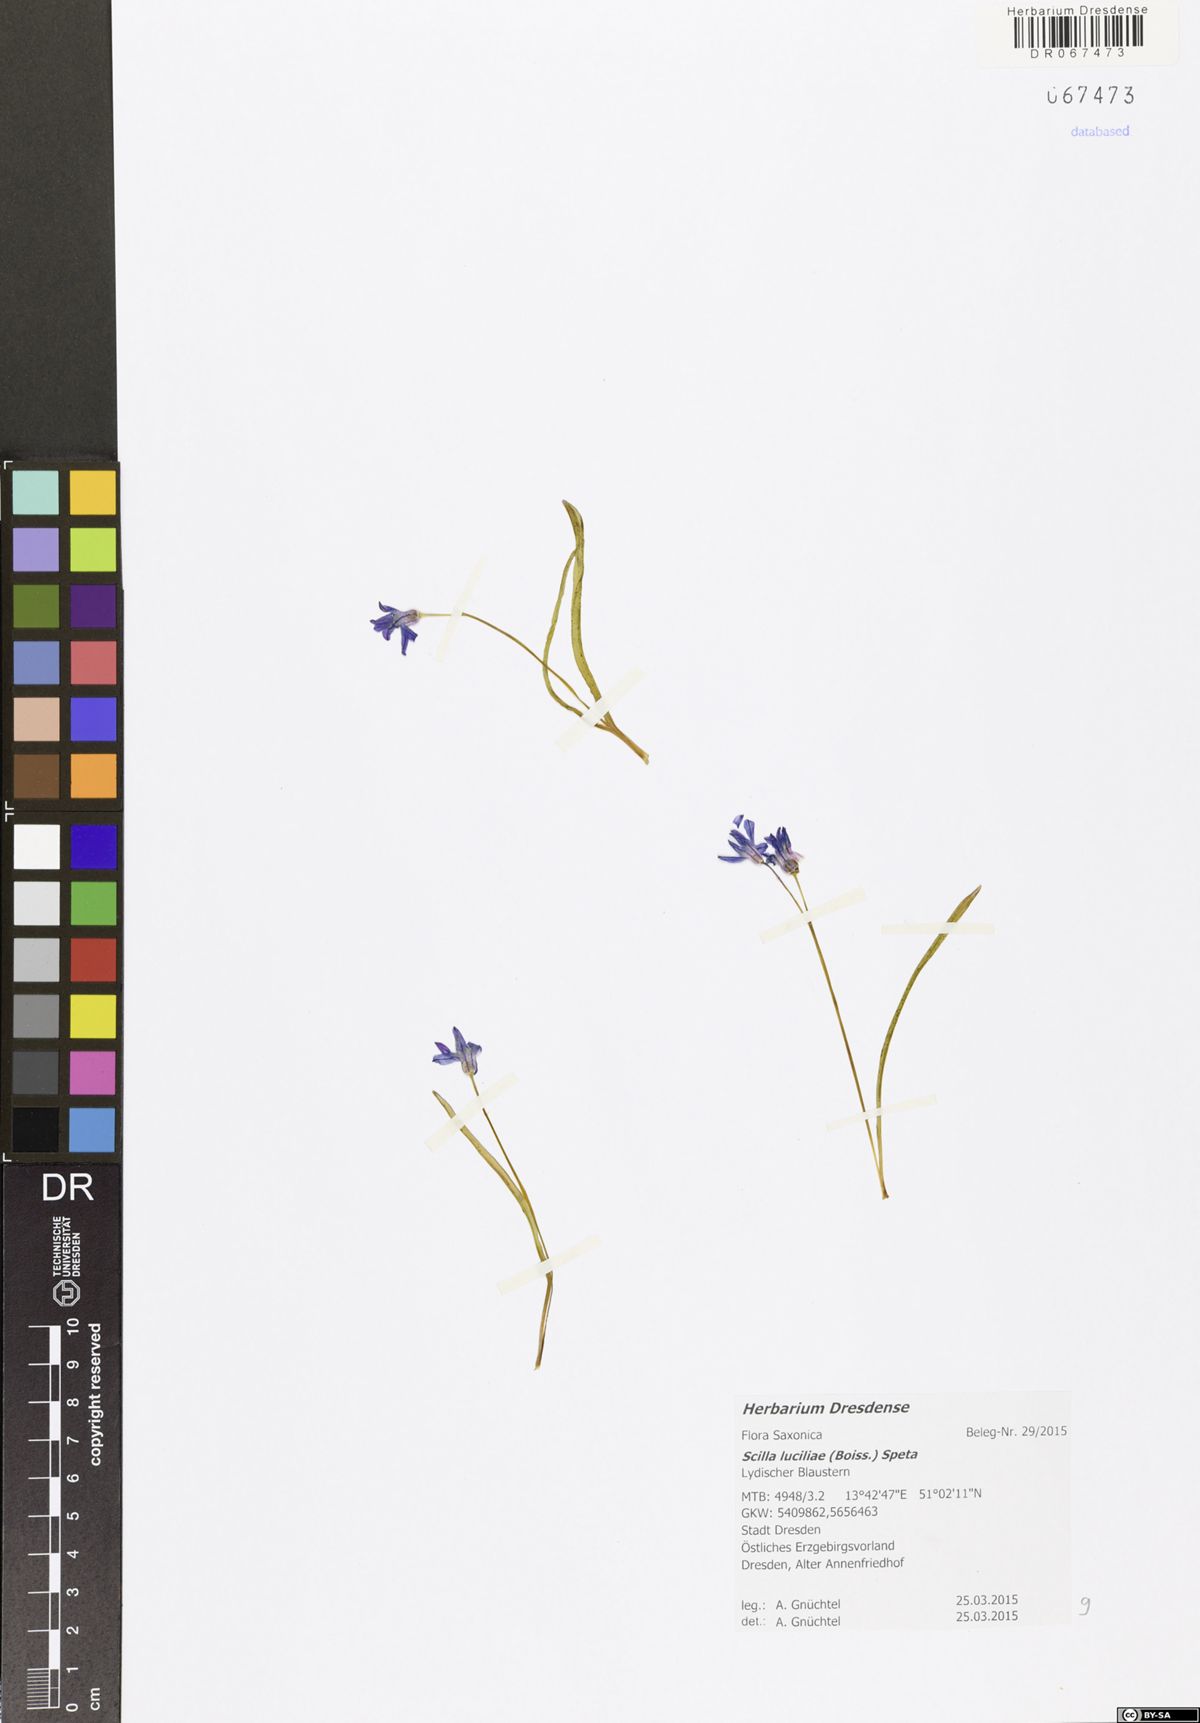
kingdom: Plantae
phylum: Tracheophyta
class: Liliopsida
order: Asparagales
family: Asparagaceae
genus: Scilla
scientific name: Scilla siberica
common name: Siberian squill
